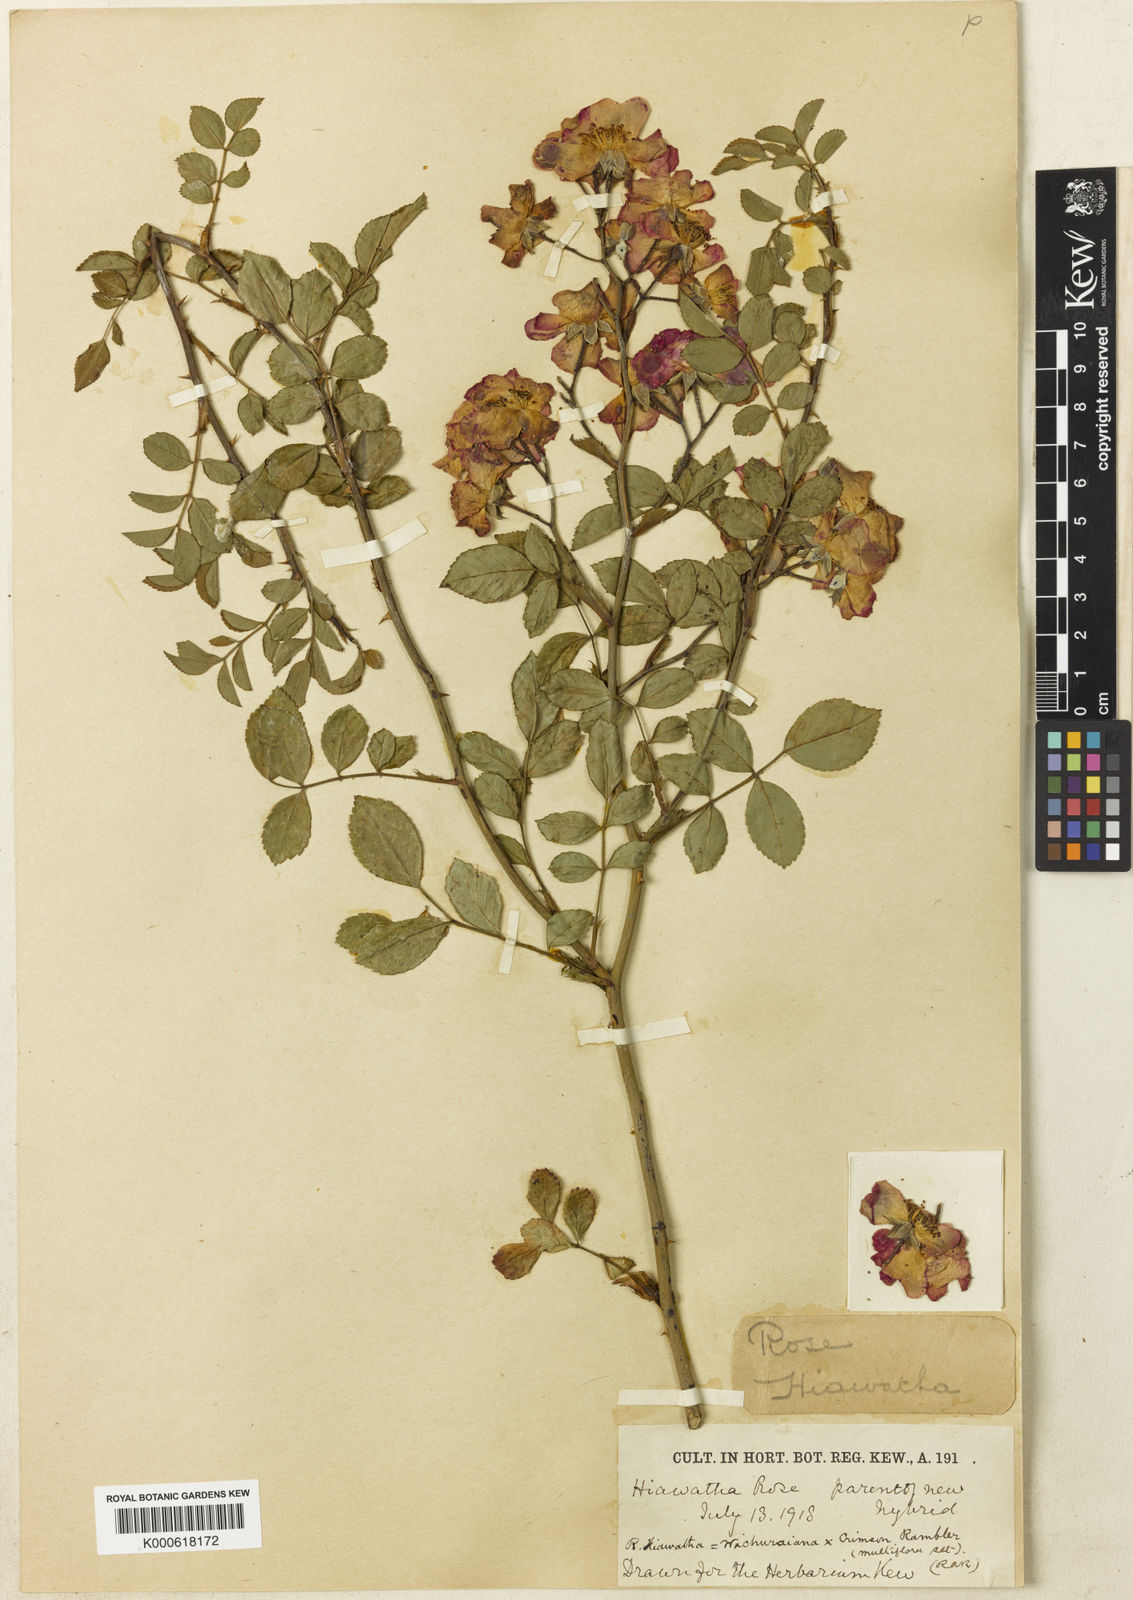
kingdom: Plantae
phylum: Tracheophyta
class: Magnoliopsida
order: Rosales
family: Rosaceae
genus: Rosa
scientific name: Rosa
